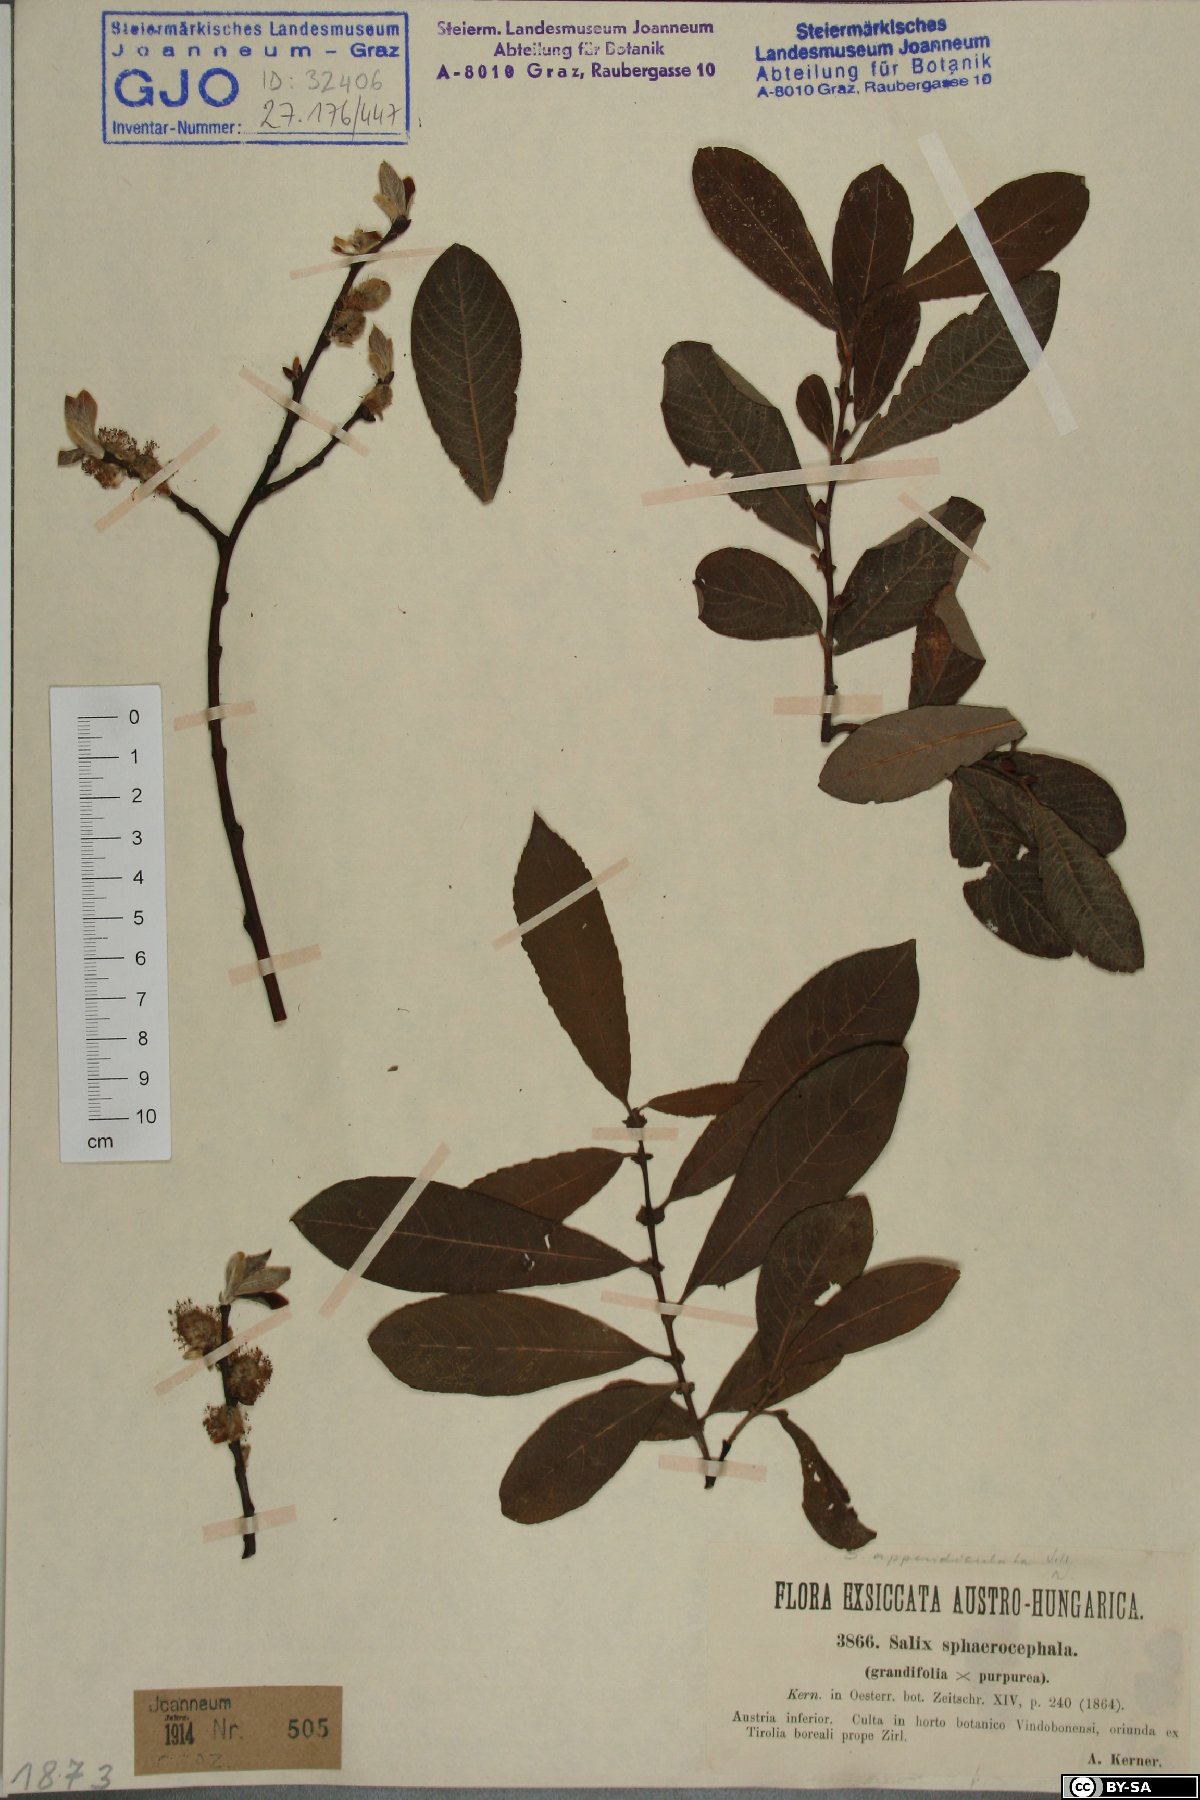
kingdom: Plantae
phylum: Tracheophyta
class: Magnoliopsida
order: Malpighiales
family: Salicaceae
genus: Salix
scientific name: Salix purpurea
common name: Purple willow
